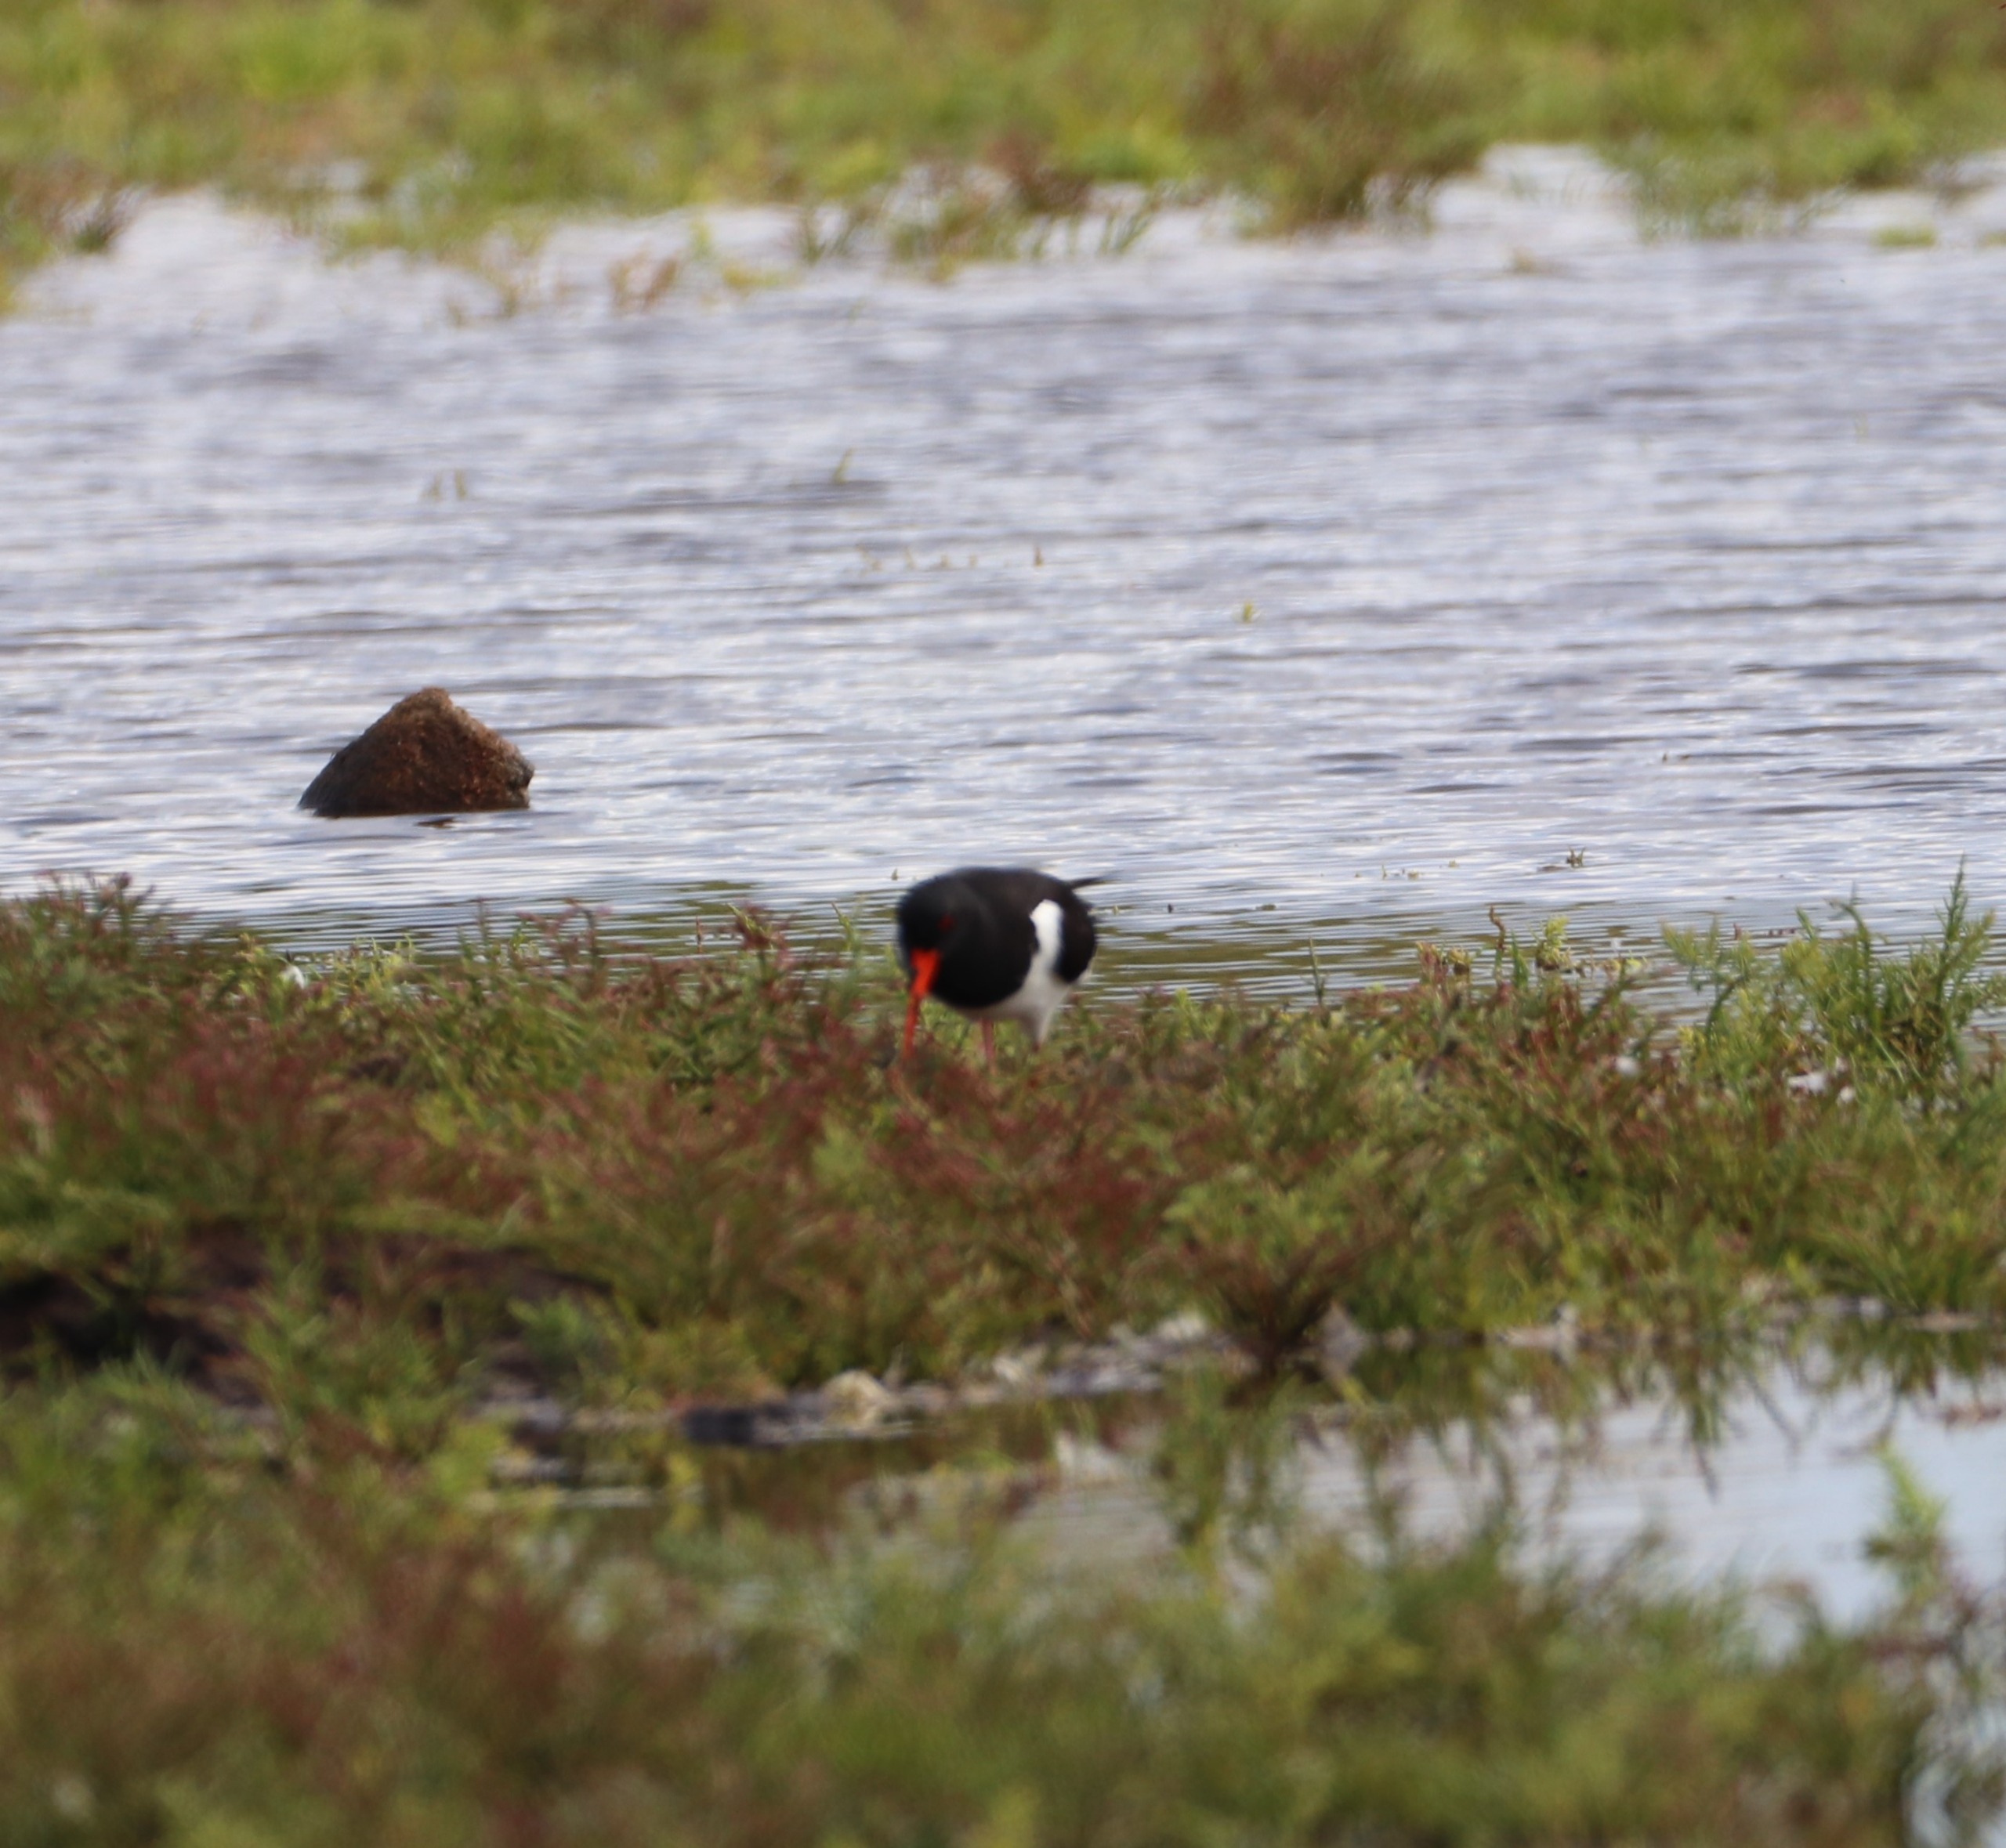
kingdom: Animalia
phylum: Chordata
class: Aves
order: Charadriiformes
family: Haematopodidae
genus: Haematopus
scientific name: Haematopus ostralegus
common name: Strandskade
